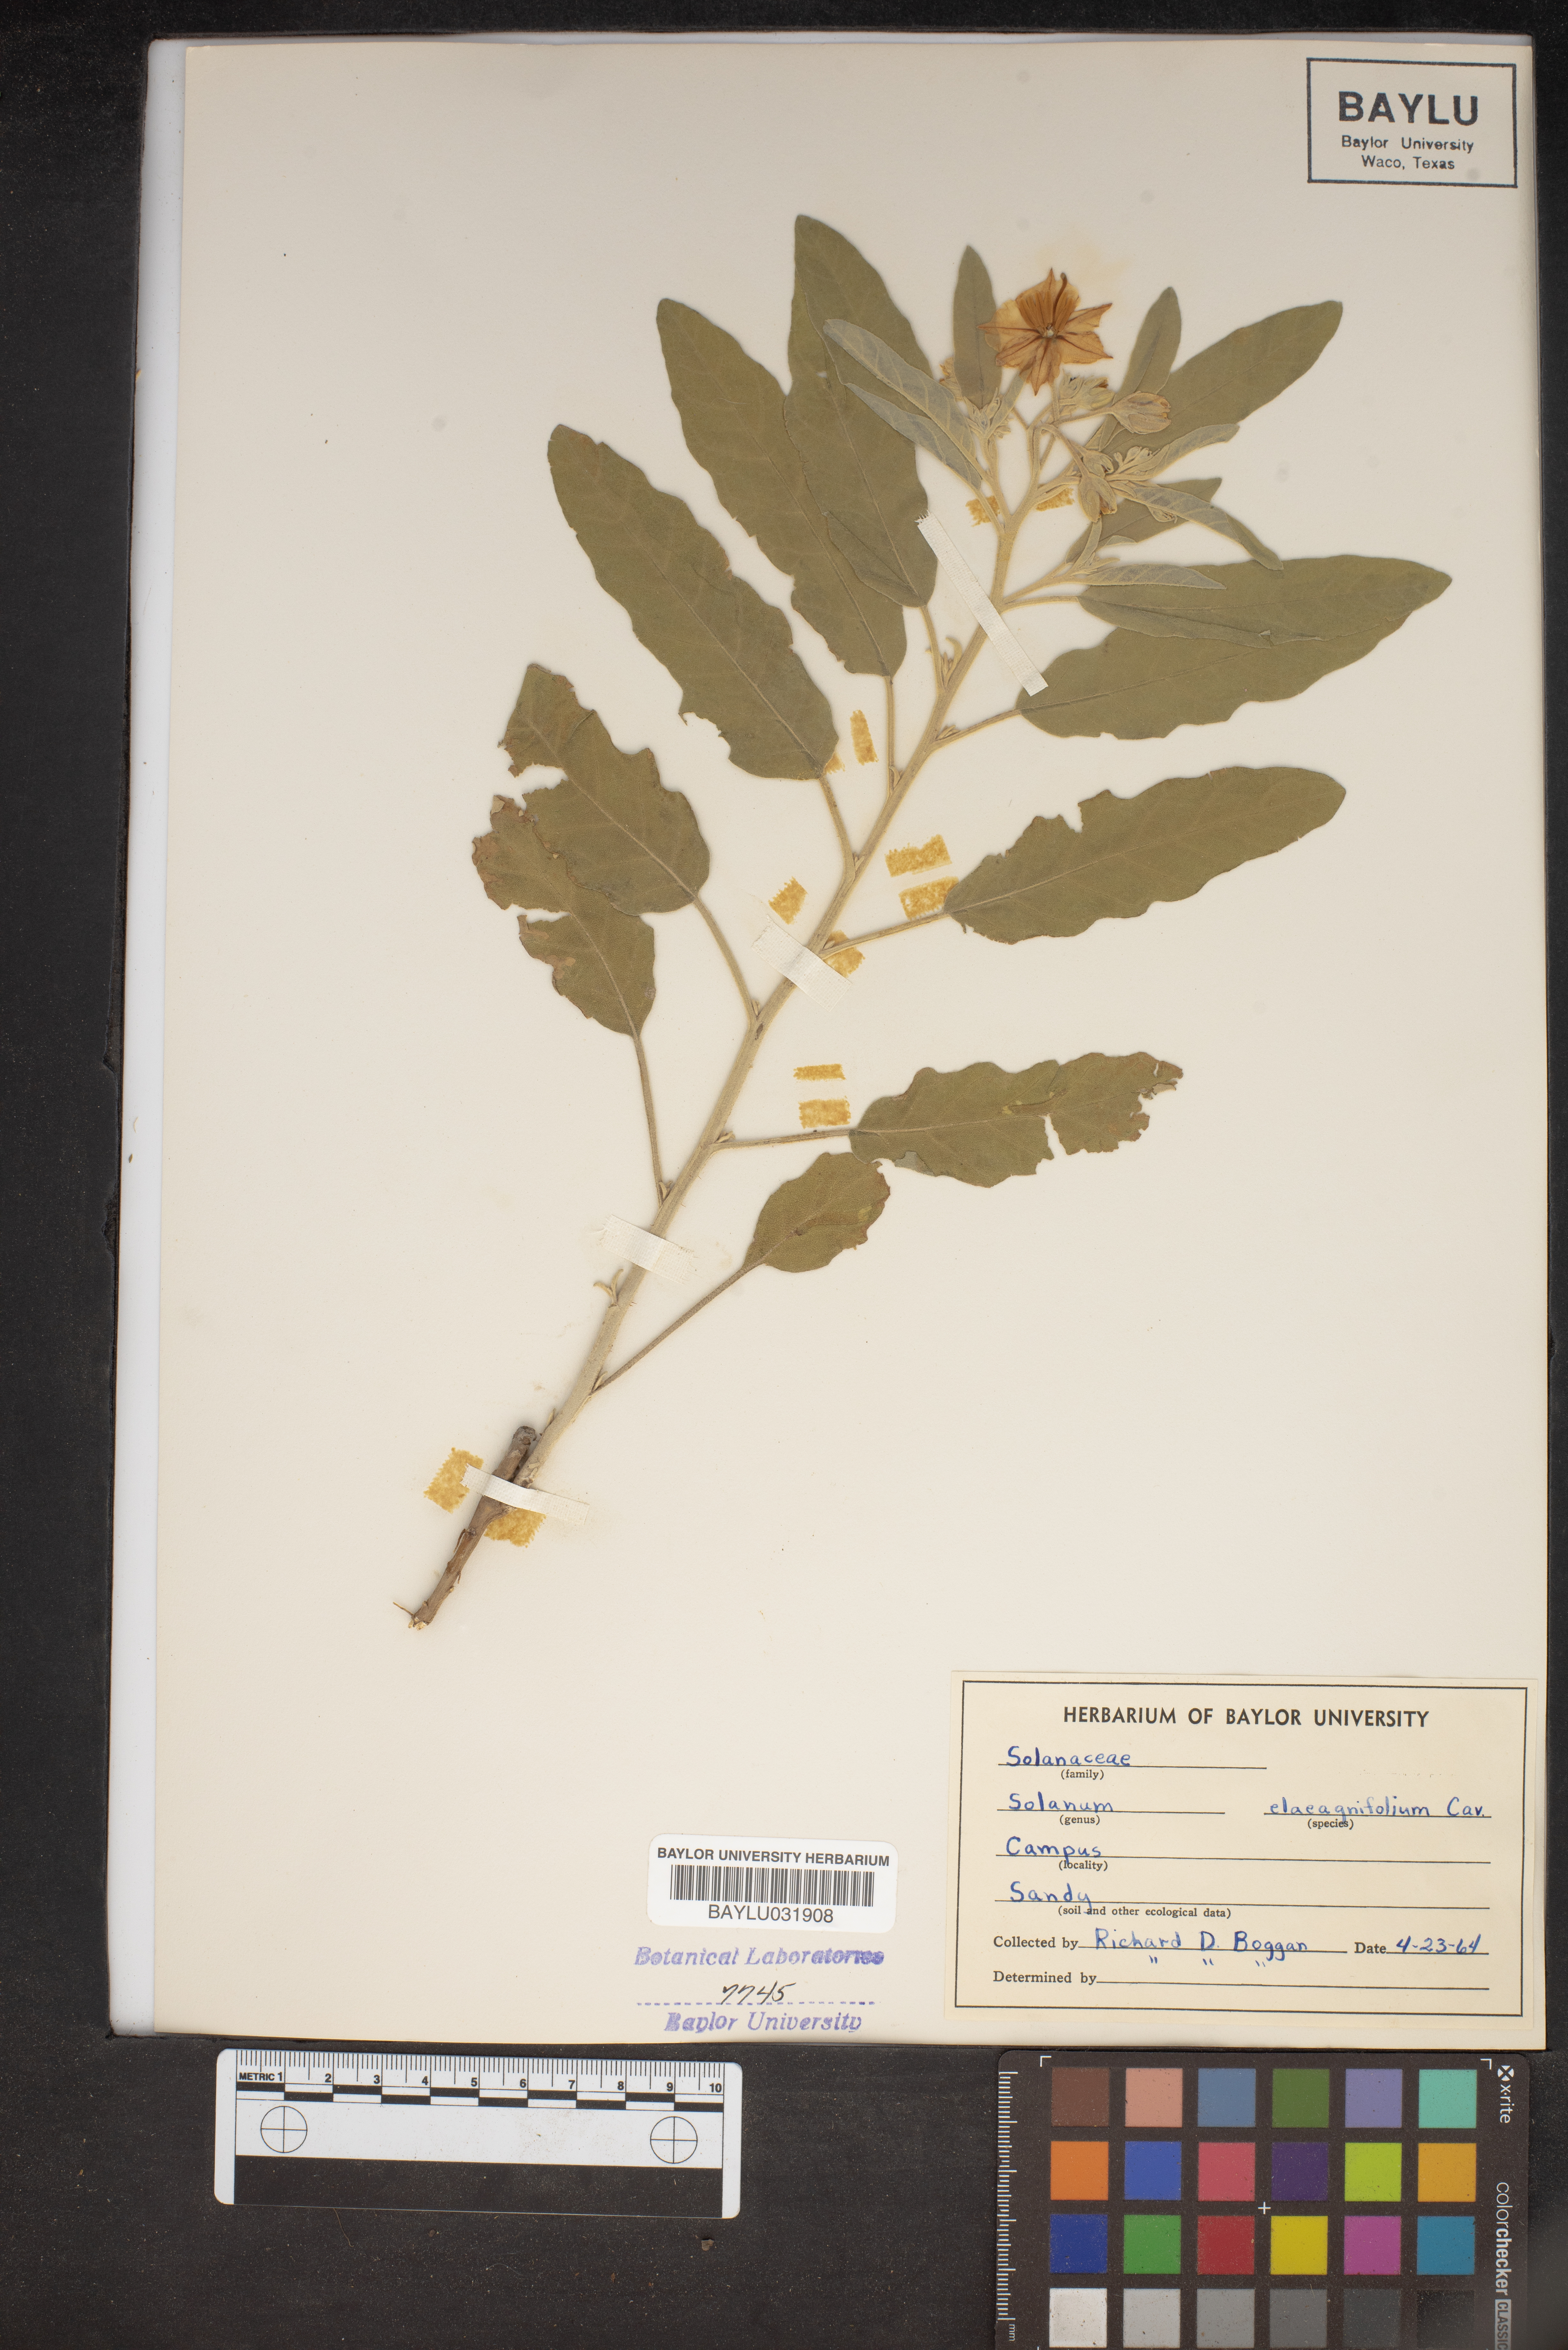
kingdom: Plantae
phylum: Tracheophyta
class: Magnoliopsida
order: Solanales
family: Solanaceae
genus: Solanum
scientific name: Solanum elaeagnifolium
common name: Silverleaf nightshade
